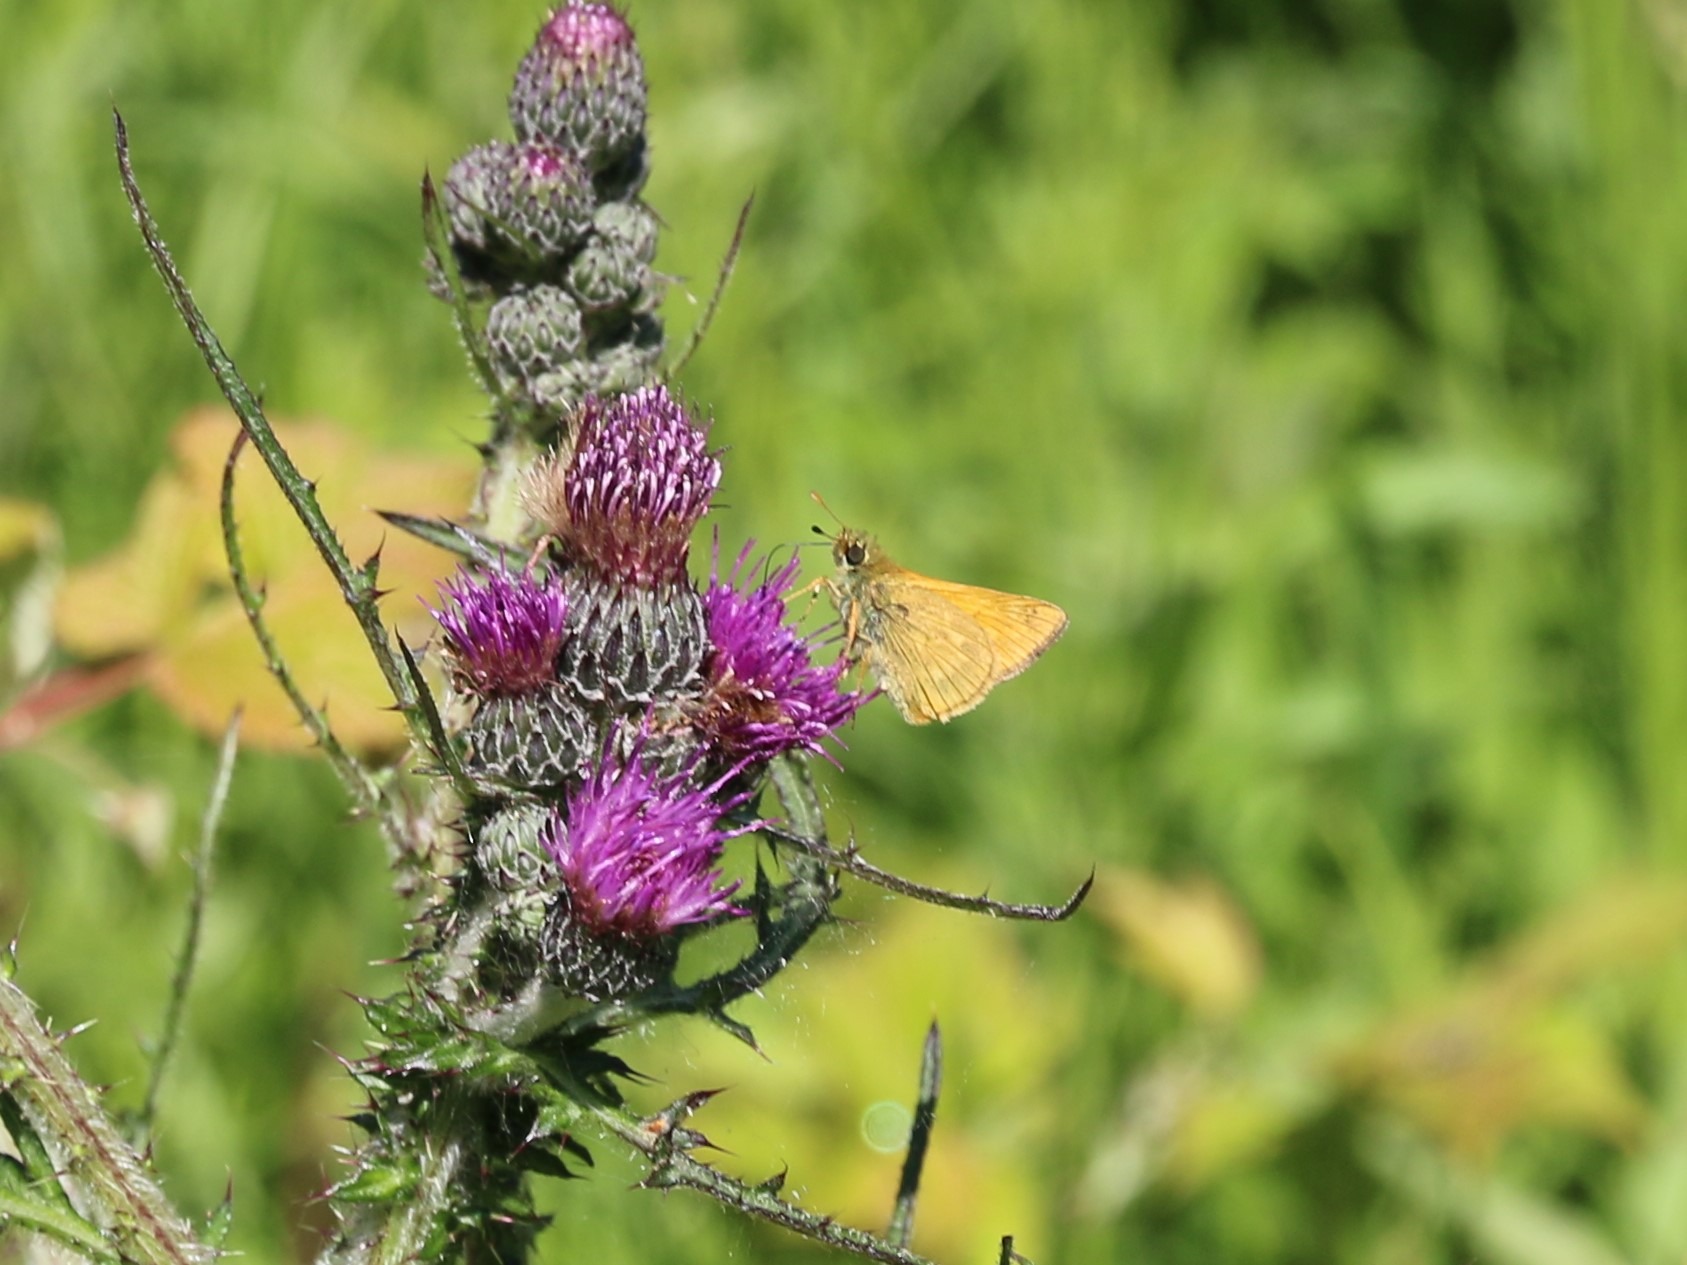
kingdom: Animalia
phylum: Arthropoda
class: Insecta
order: Lepidoptera
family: Hesperiidae
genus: Ochlodes
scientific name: Ochlodes venata
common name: Stor bredpande
